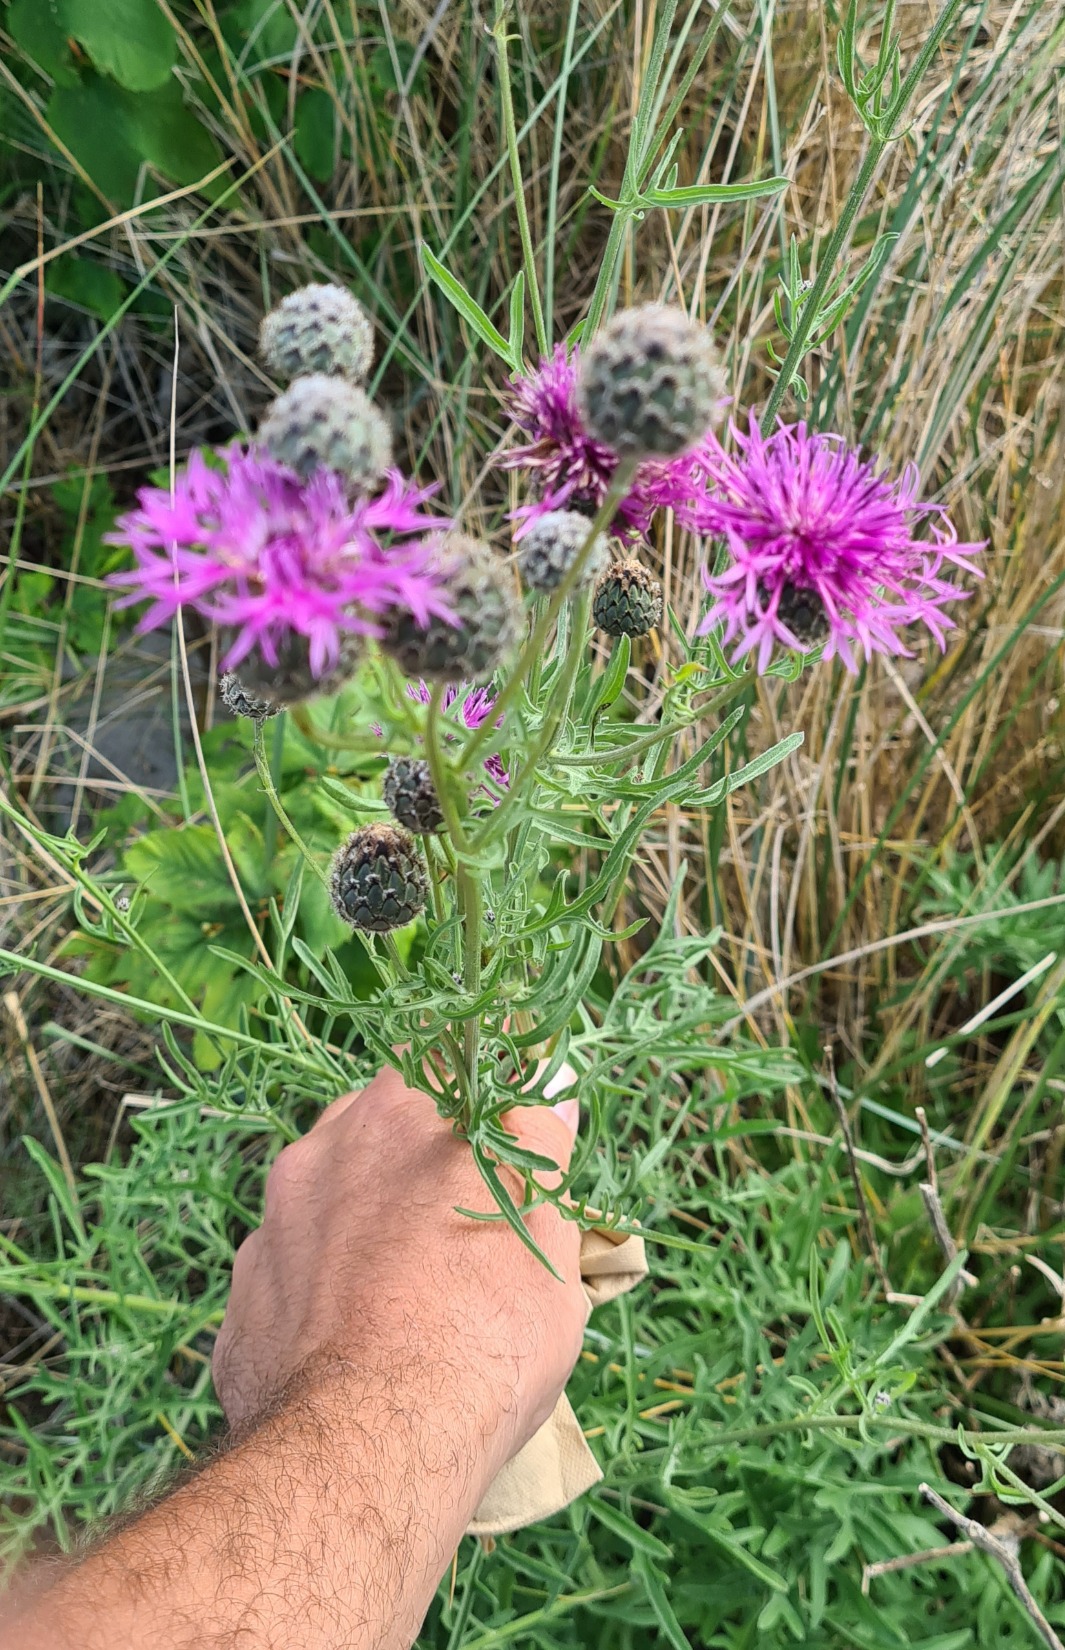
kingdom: Plantae
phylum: Tracheophyta
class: Magnoliopsida
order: Asterales
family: Asteraceae
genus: Centaurea
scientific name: Centaurea scabiosa
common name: Stor knopurt
